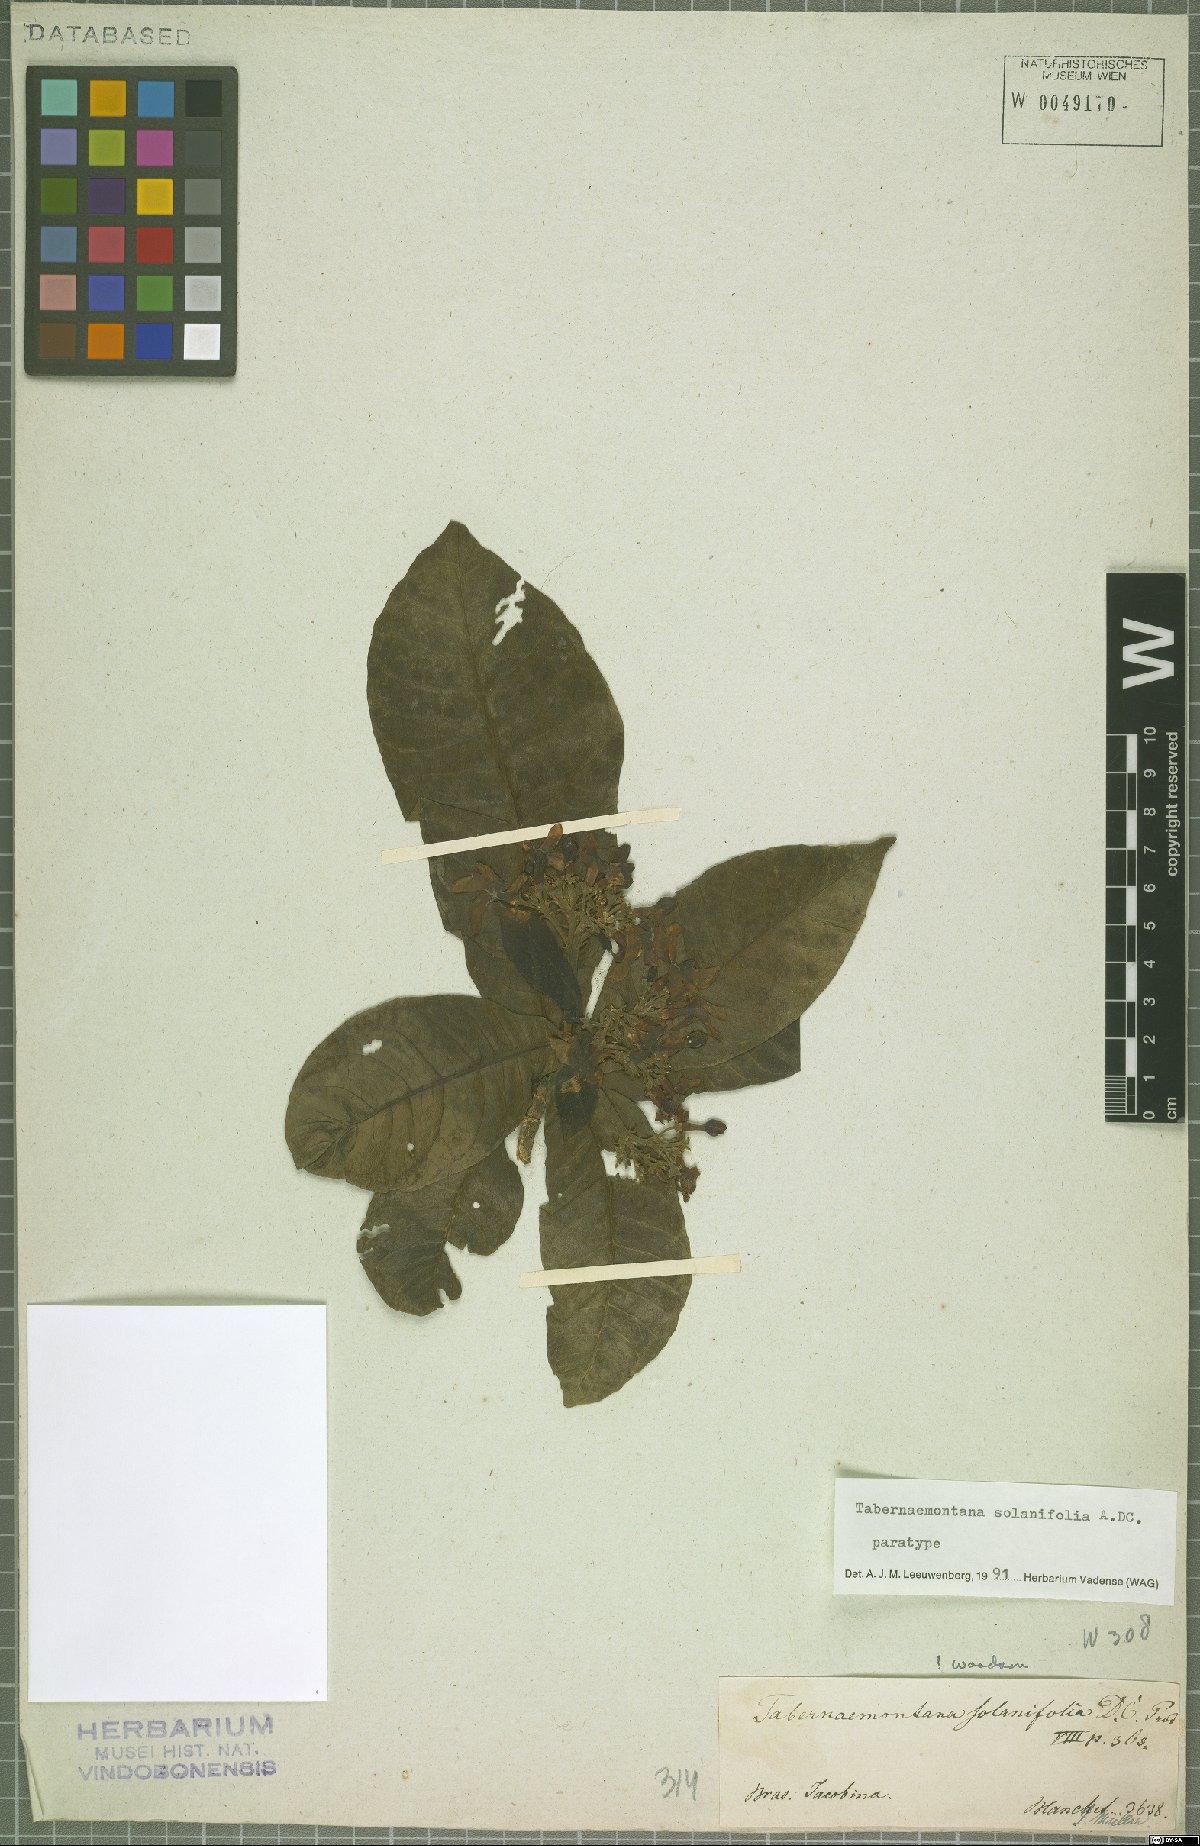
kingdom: Plantae
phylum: Tracheophyta
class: Magnoliopsida
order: Gentianales
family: Apocynaceae
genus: Tabernaemontana
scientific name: Tabernaemontana solanifolia
